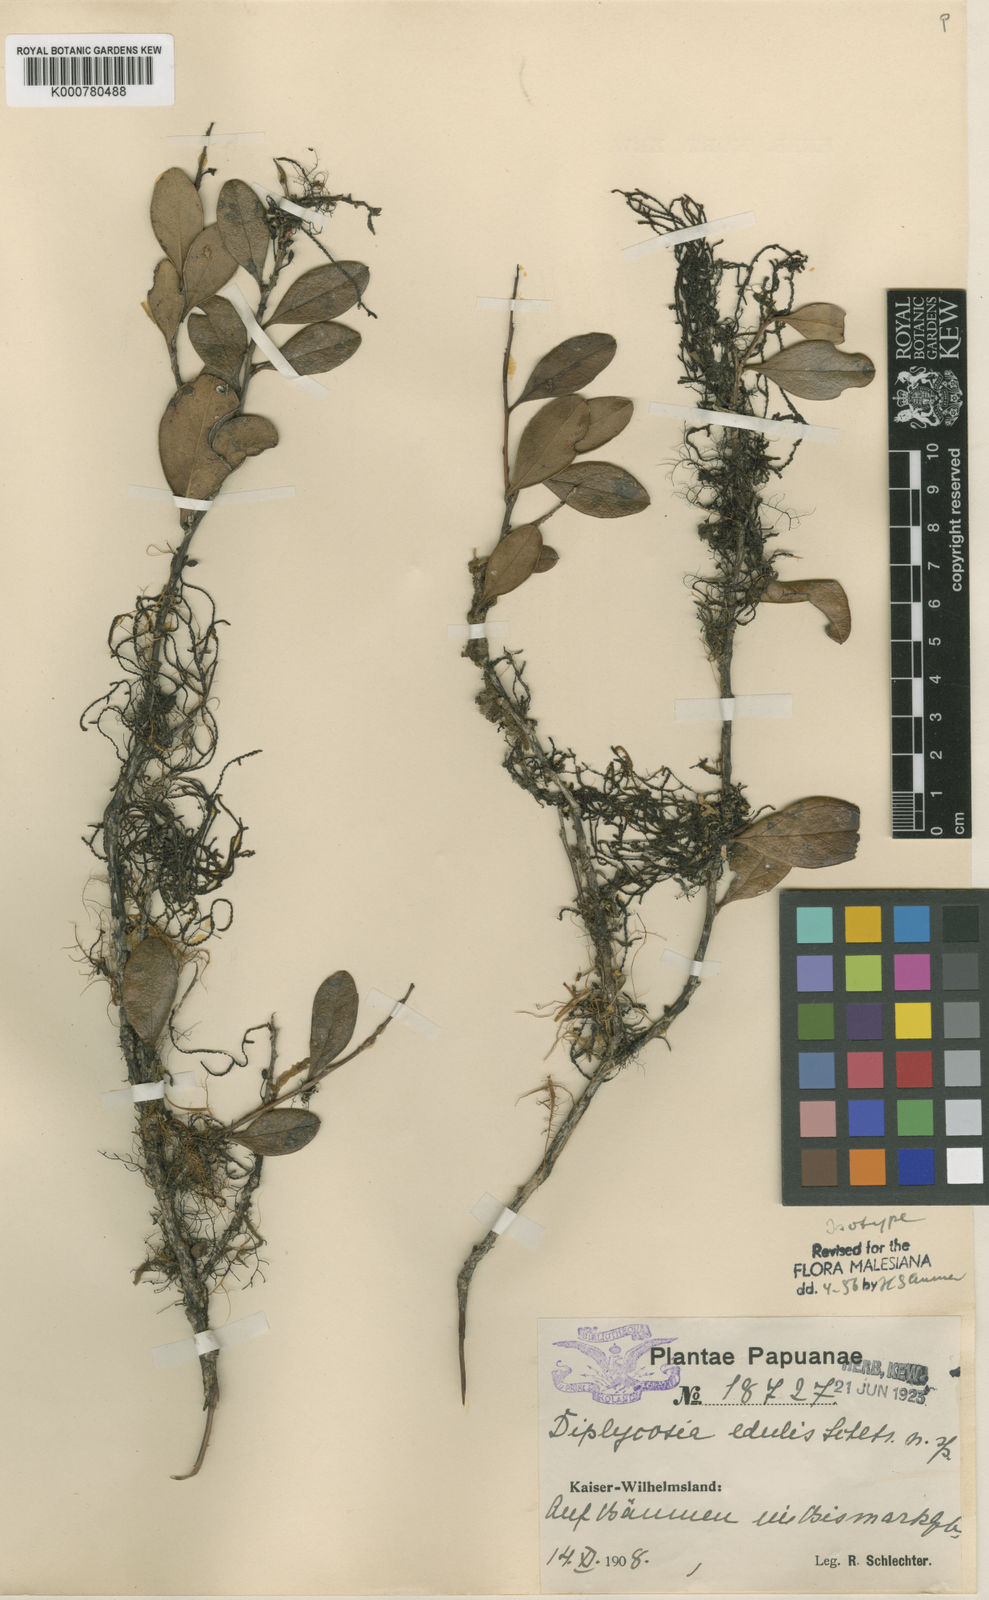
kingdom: Plantae
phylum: Tracheophyta
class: Magnoliopsida
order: Ericales
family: Ericaceae
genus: Gaultheria
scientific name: Gaultheria edulis
